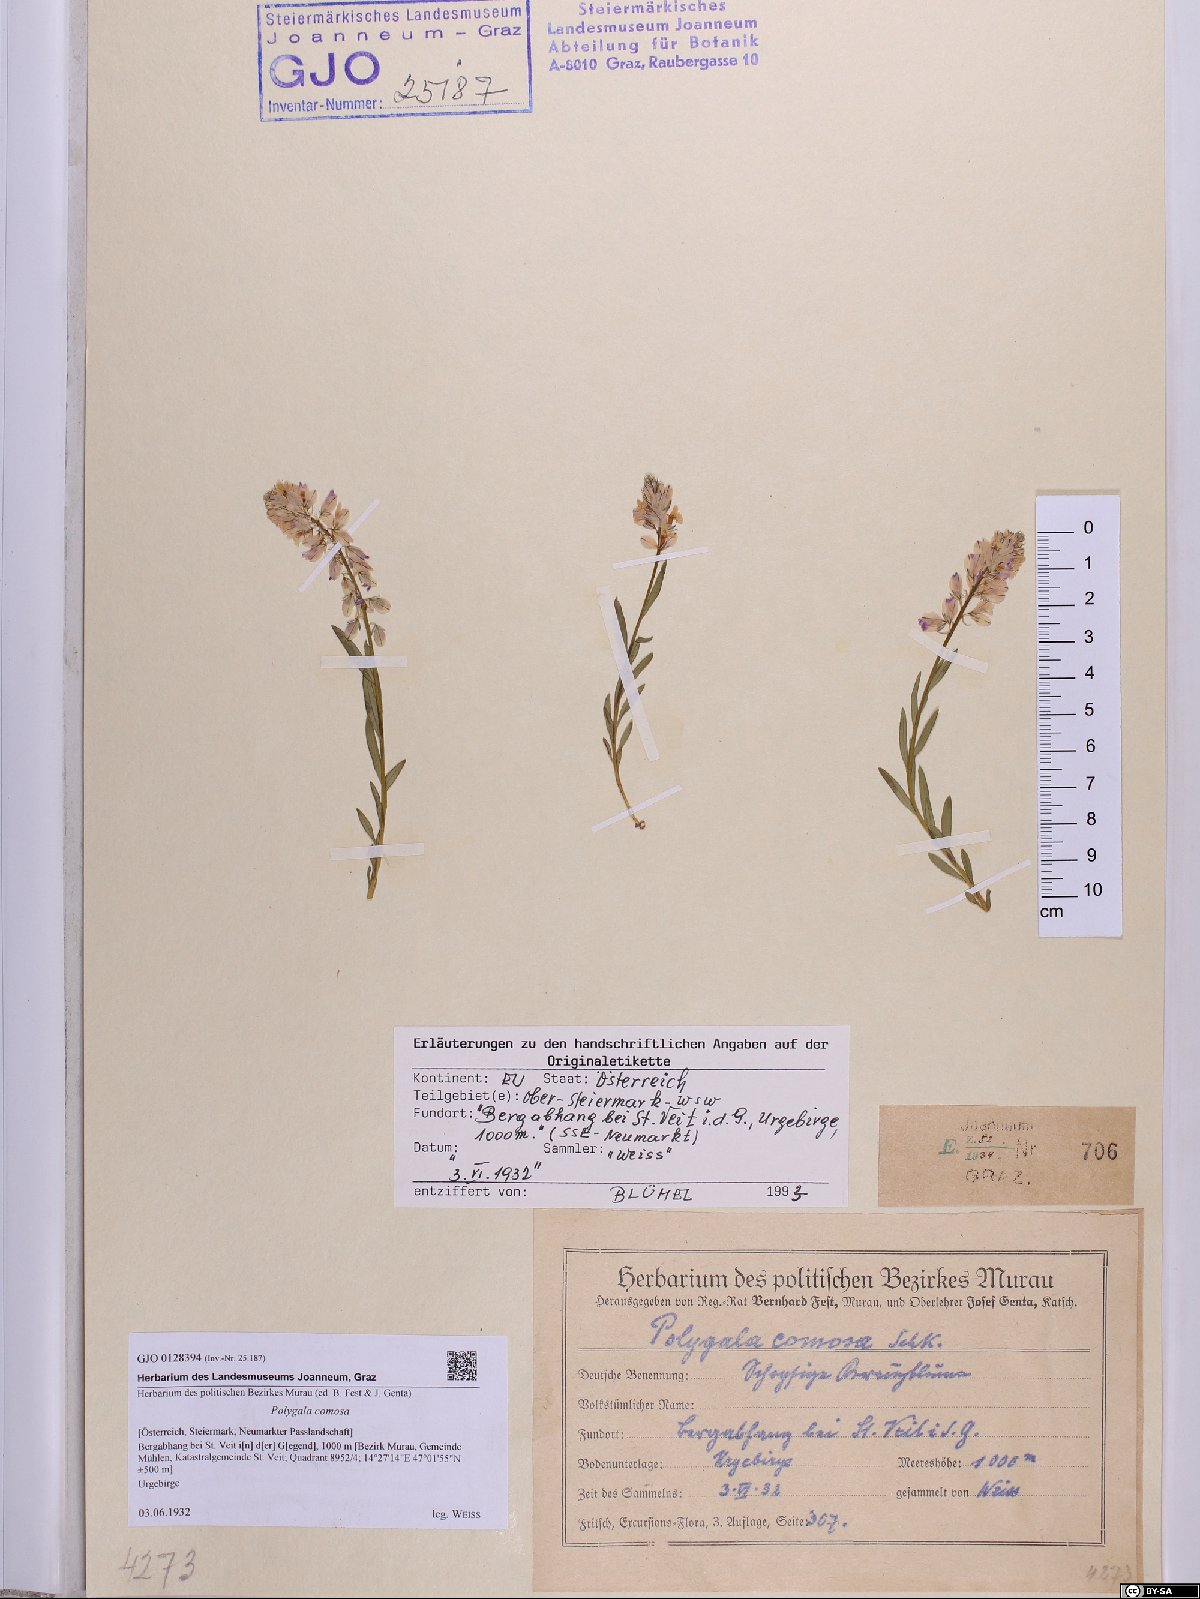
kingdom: Plantae
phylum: Tracheophyta
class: Magnoliopsida
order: Fabales
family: Polygalaceae
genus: Polygala
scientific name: Polygala comosa
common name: Tufted milkwort
